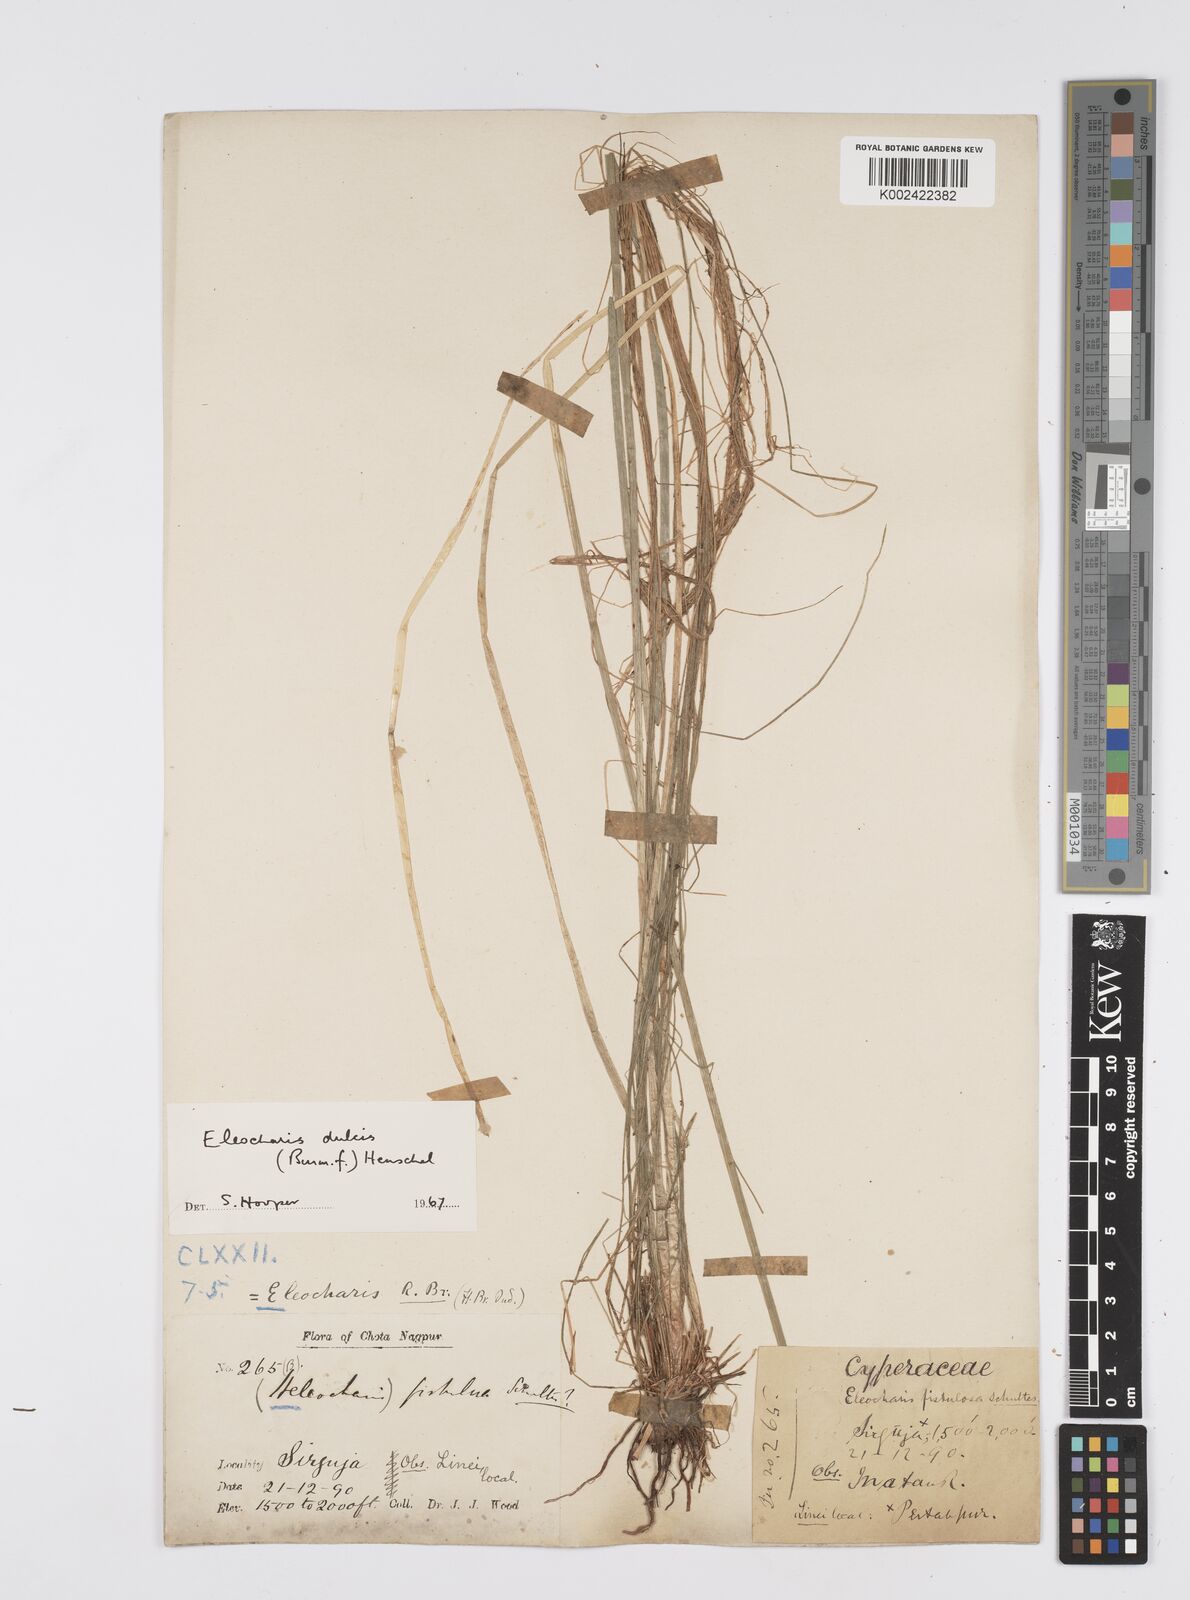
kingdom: Plantae
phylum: Tracheophyta
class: Liliopsida
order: Poales
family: Cyperaceae
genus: Eleocharis
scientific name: Eleocharis dulcis
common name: Chinese water chestnut
